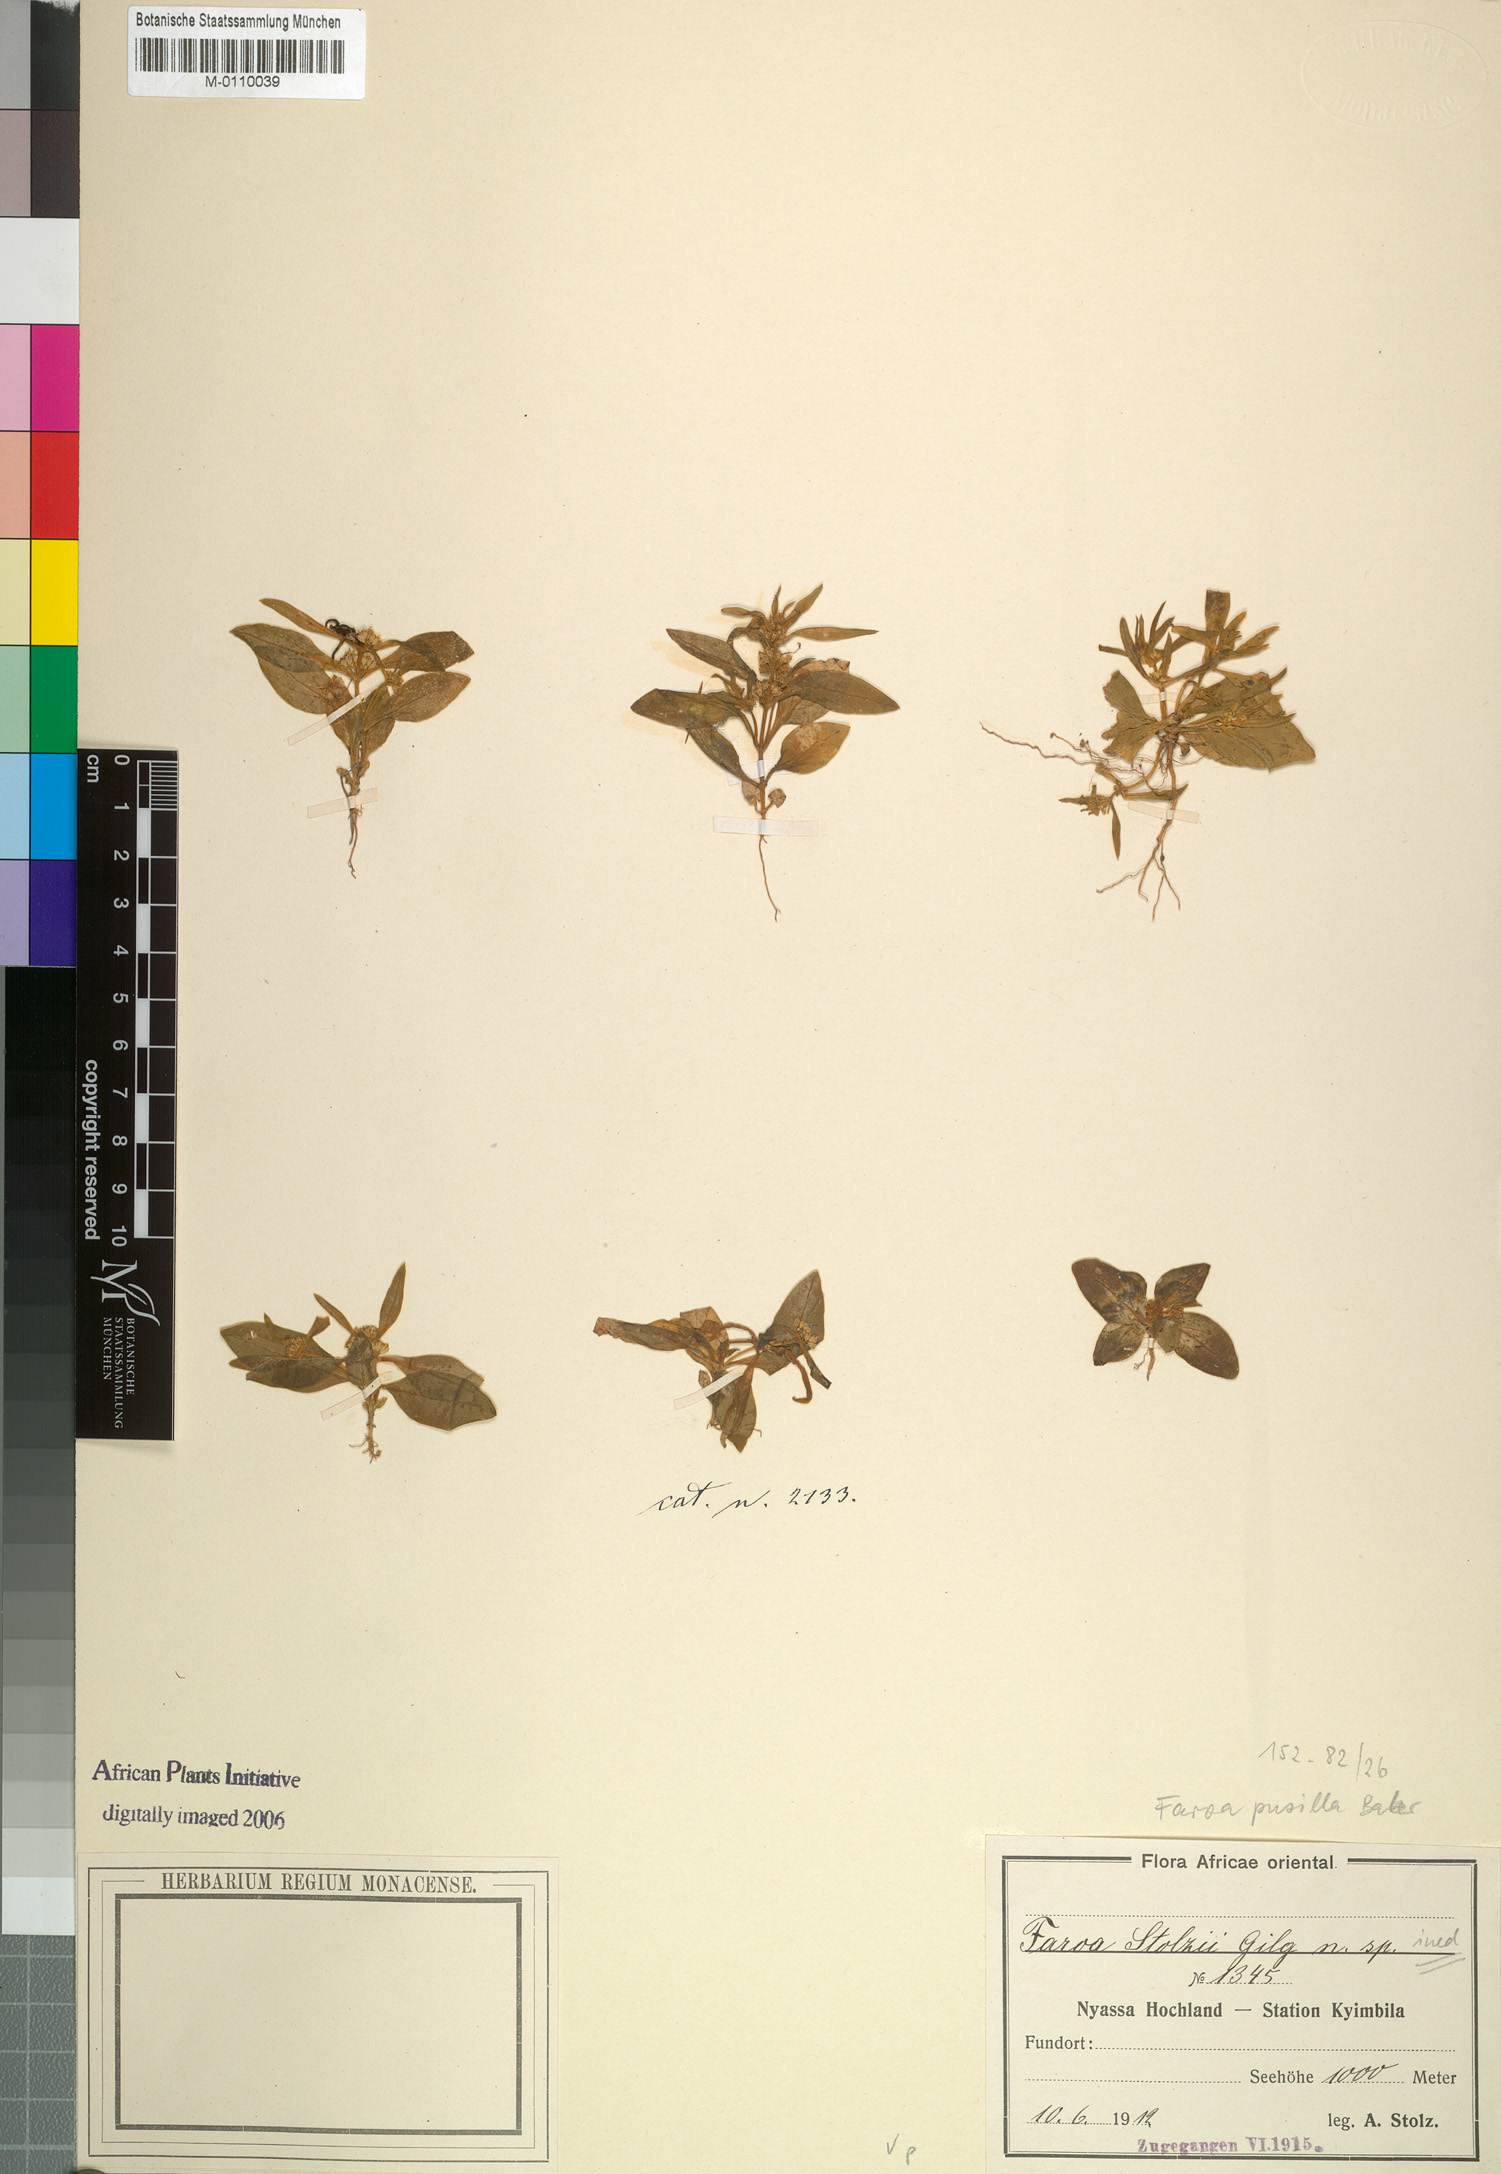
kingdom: Plantae
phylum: Tracheophyta
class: Magnoliopsida
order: Gentianales
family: Gentianaceae
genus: Faroa
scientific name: Faroa pusilla
